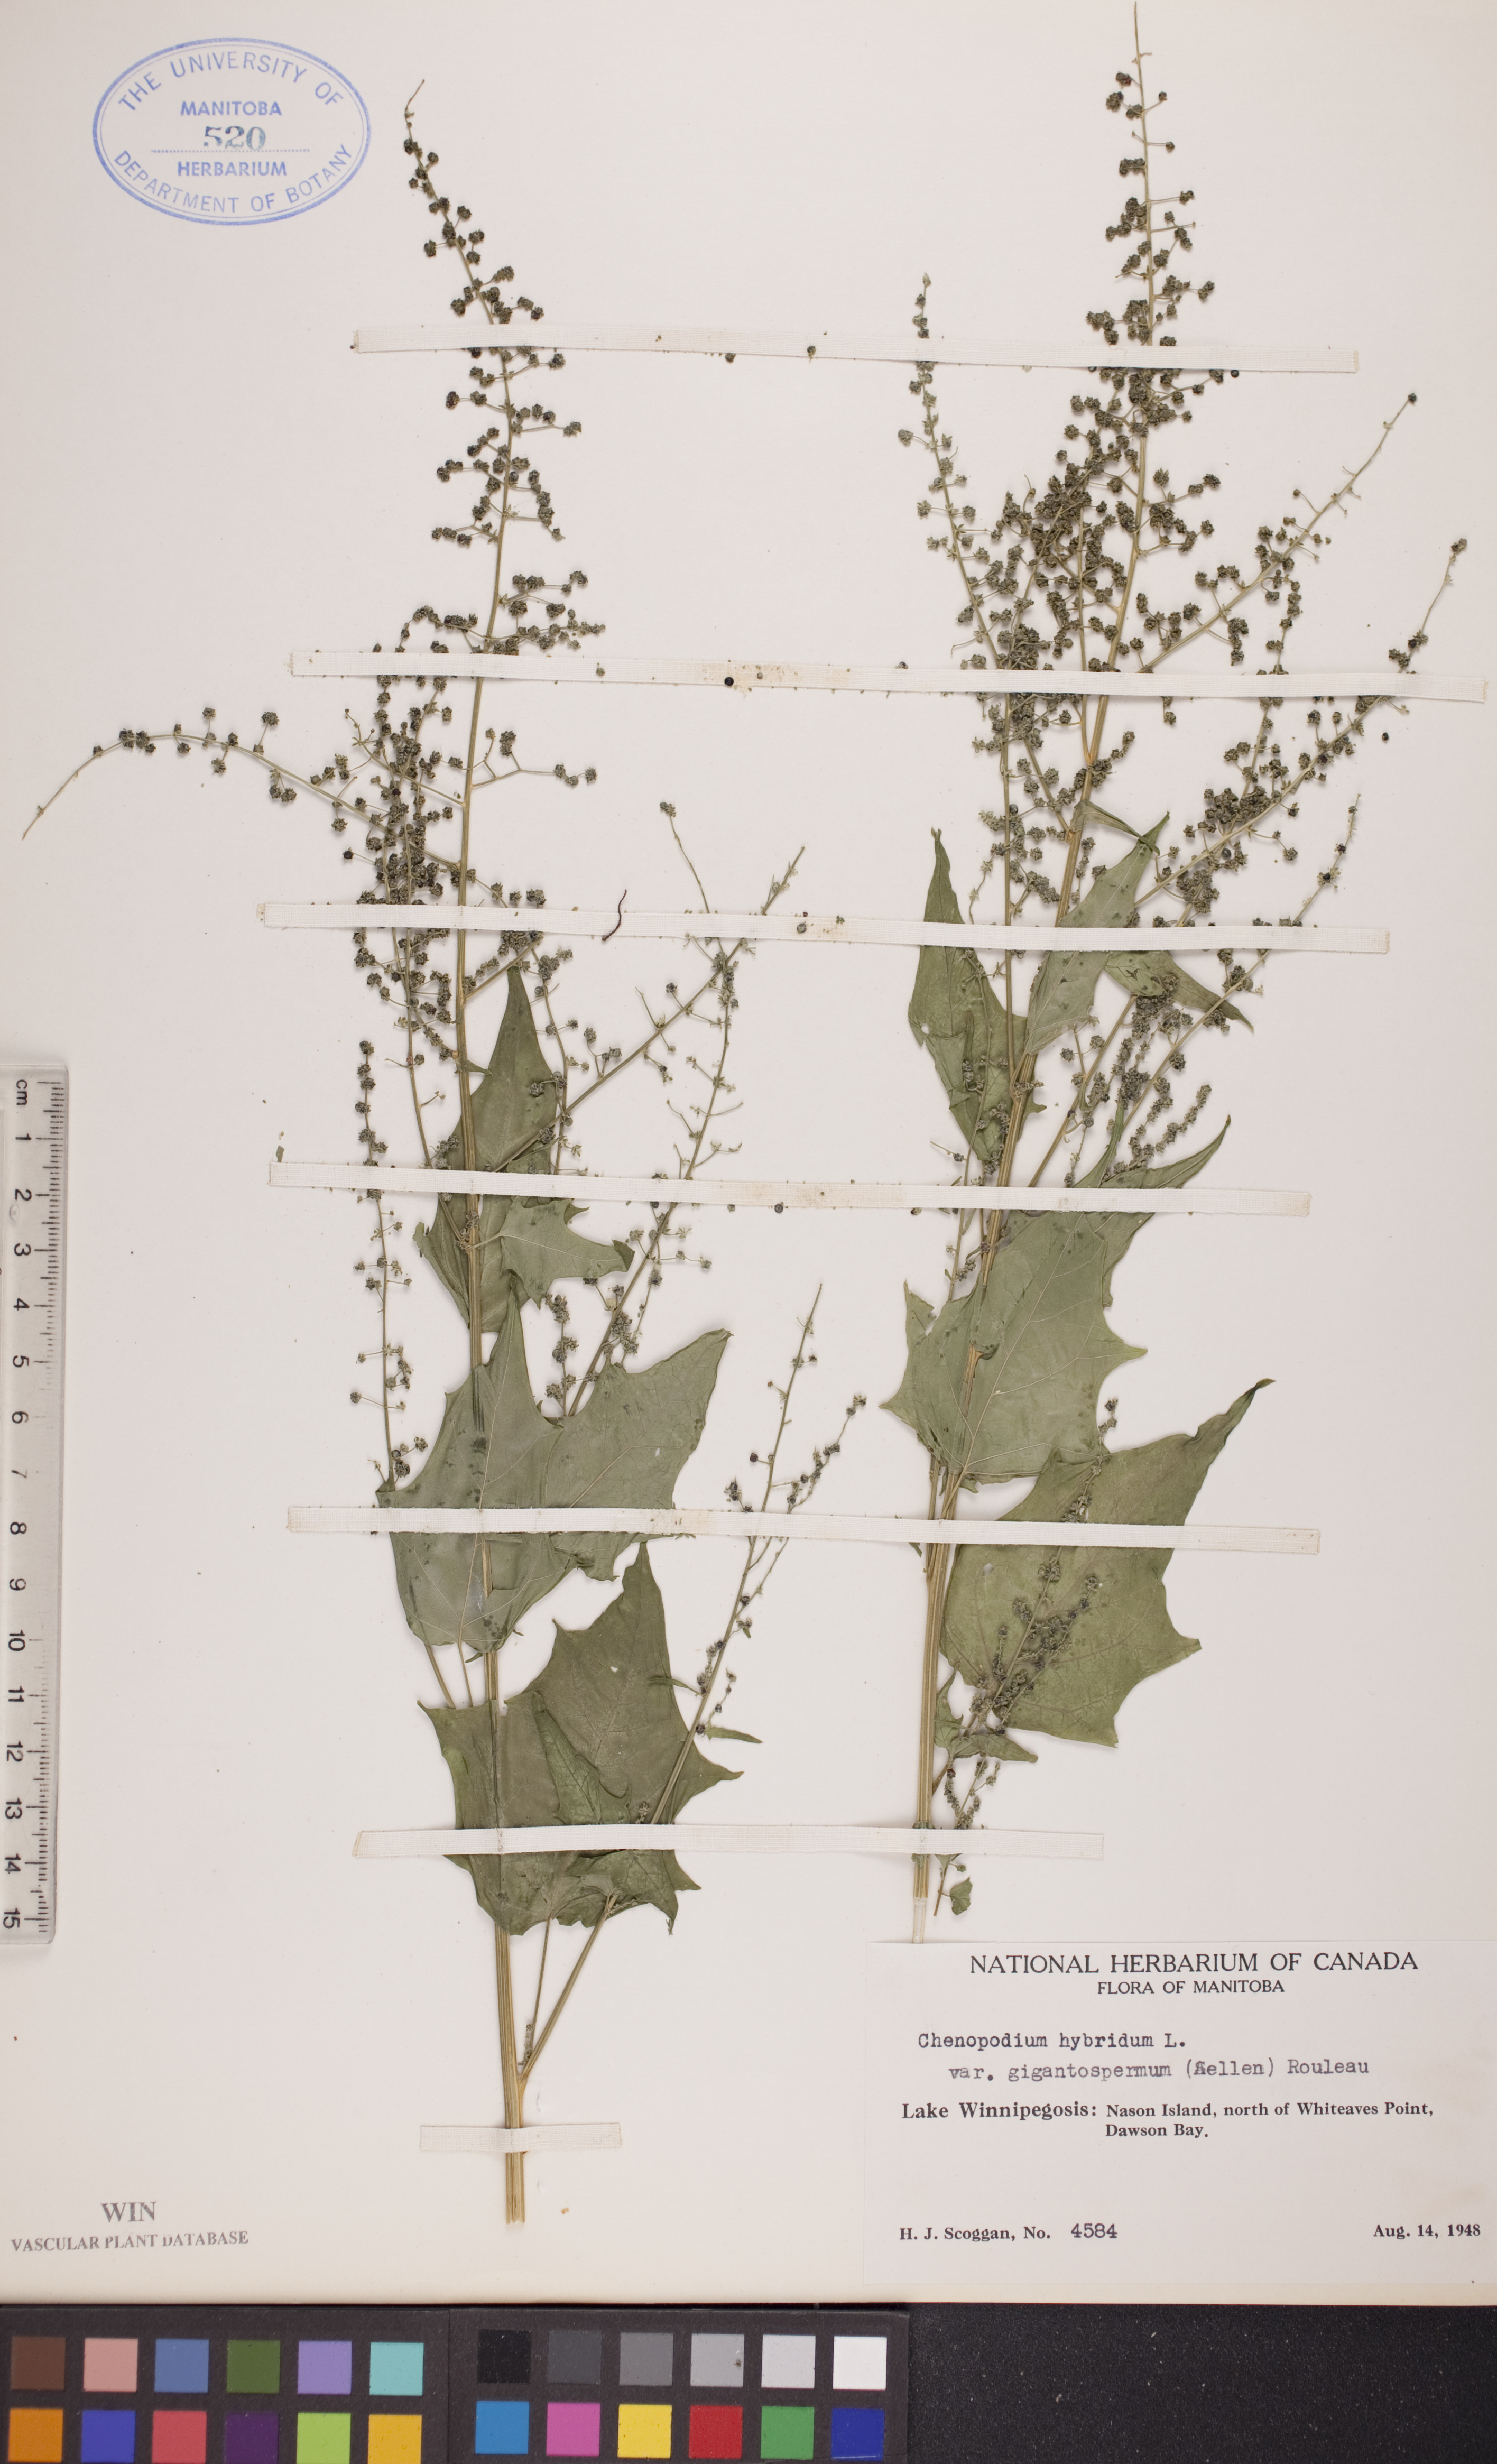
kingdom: Plantae
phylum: Tracheophyta
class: Magnoliopsida
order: Caryophyllales
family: Amaranthaceae
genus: Chenopodiastrum
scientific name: Chenopodiastrum simplex
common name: Large-seed goosefoot
